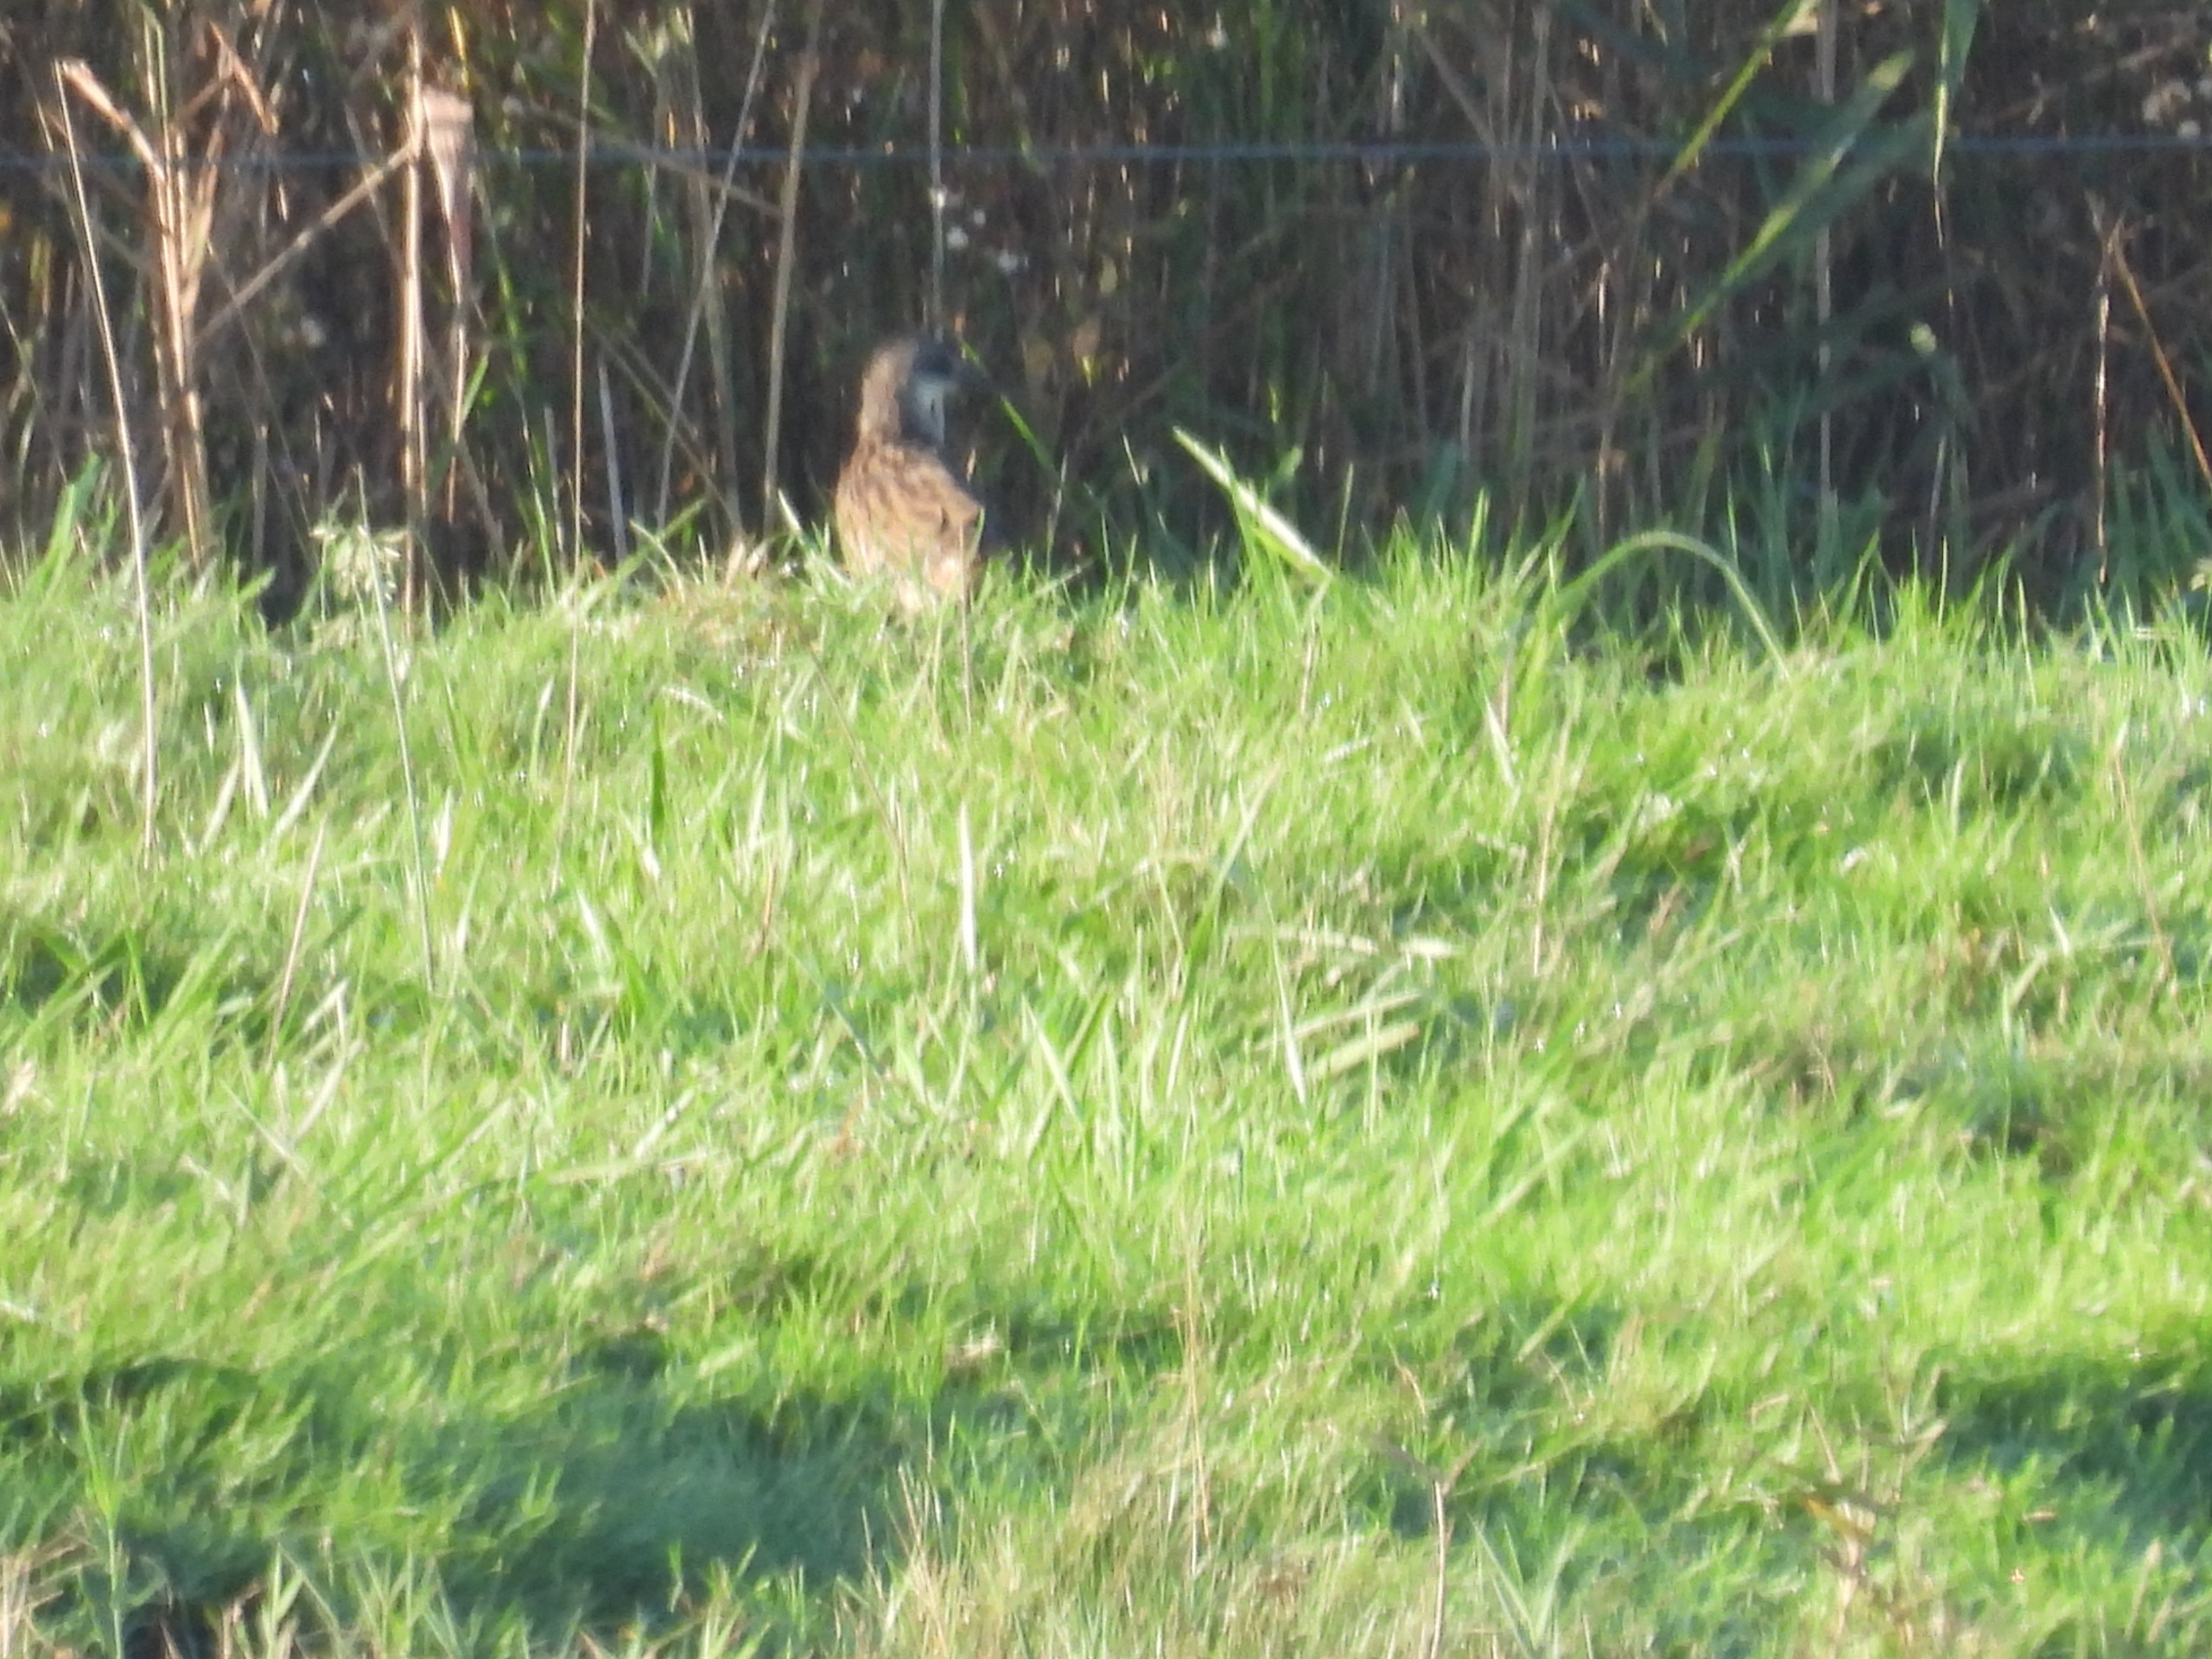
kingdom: Animalia
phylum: Chordata
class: Aves
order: Gruiformes
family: Rallidae
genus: Rallus
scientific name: Rallus aquaticus
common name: Vandrikse
